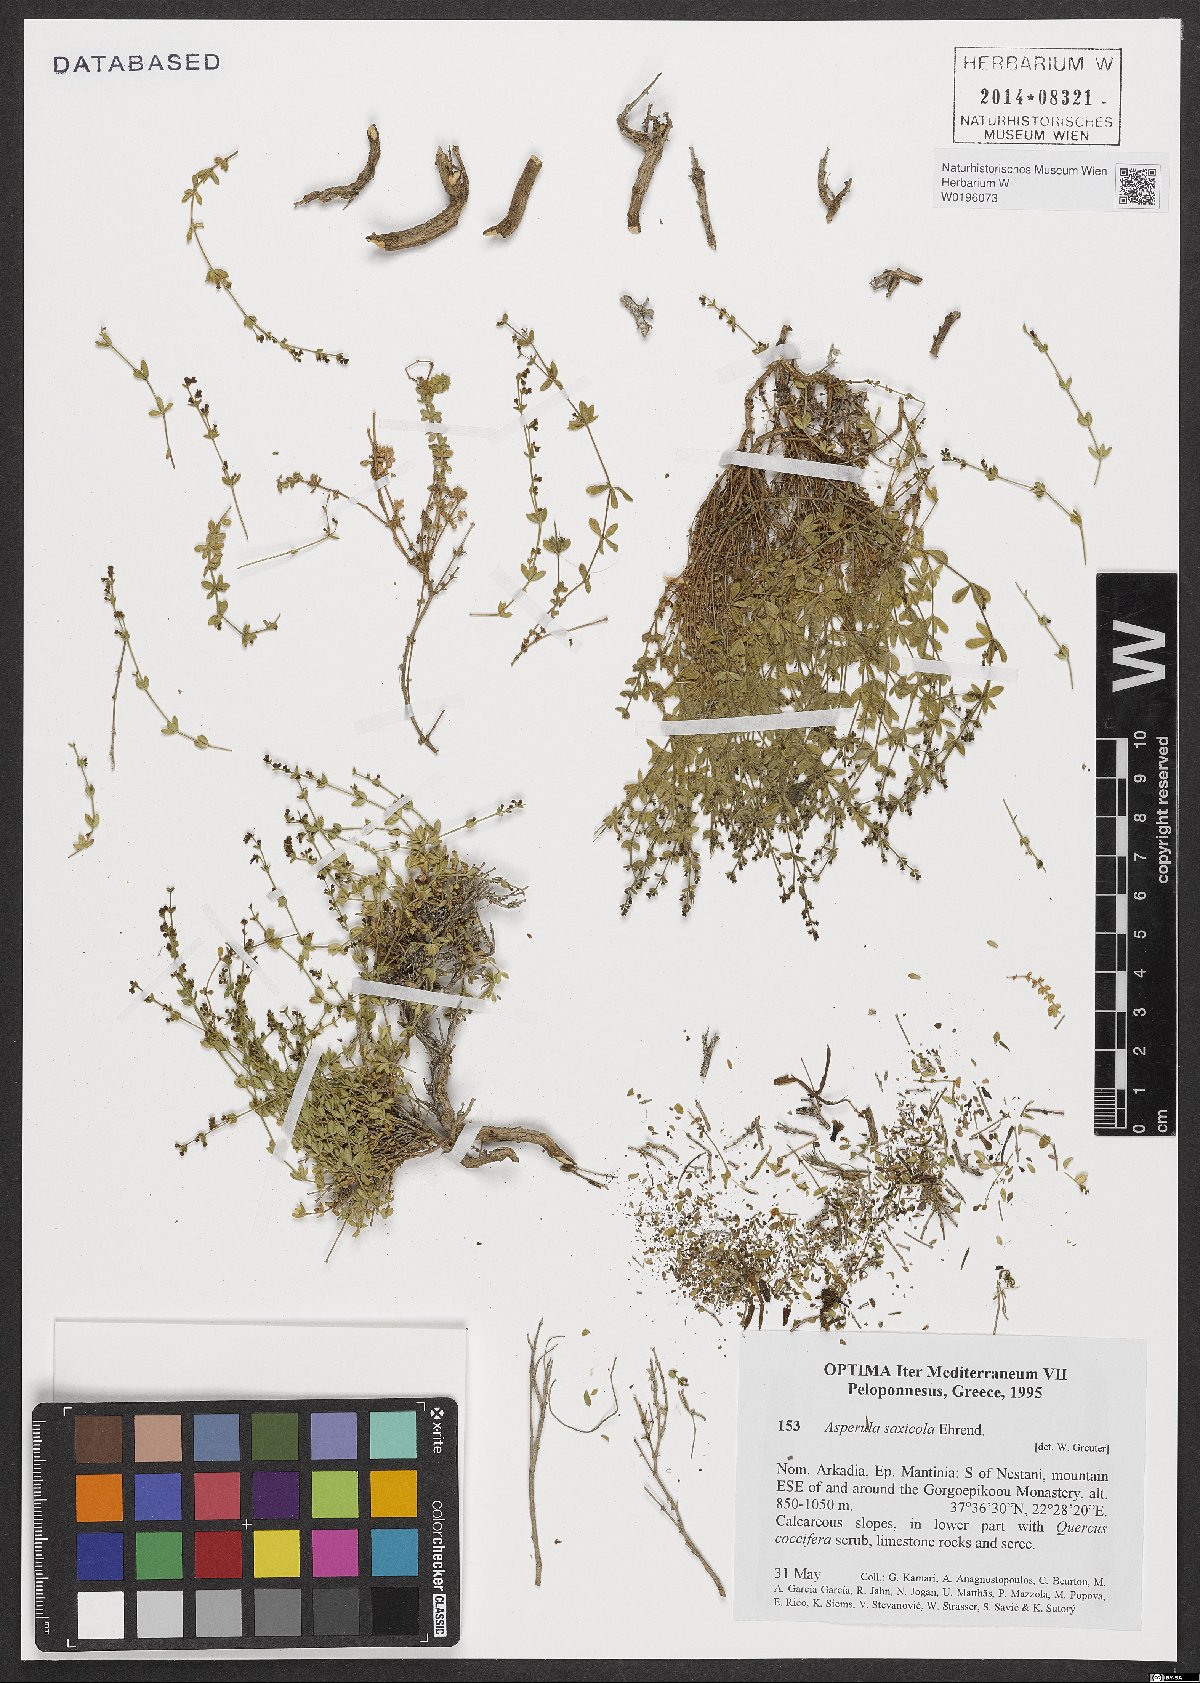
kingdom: Plantae
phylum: Tracheophyta
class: Magnoliopsida
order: Gentianales
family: Rubiaceae
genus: Thliphthisa
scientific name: Thliphthisa saxicola
